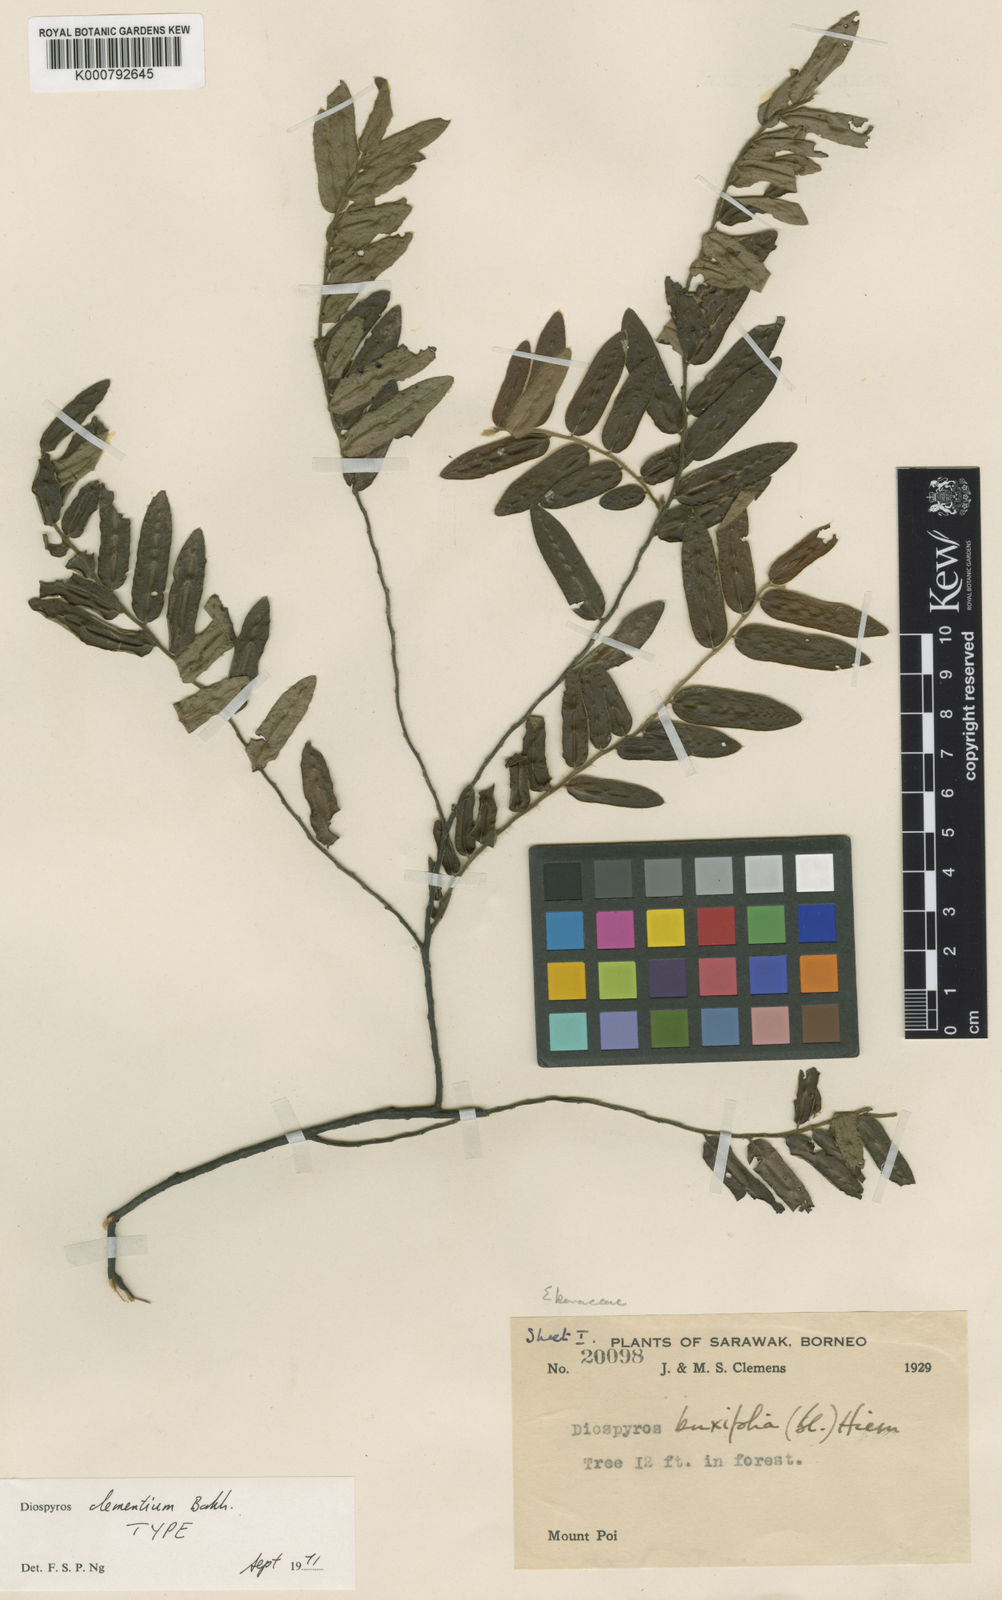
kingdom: Plantae
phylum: Tracheophyta
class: Magnoliopsida
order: Ericales
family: Ebenaceae
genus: Diospyros
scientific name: Diospyros clementium
